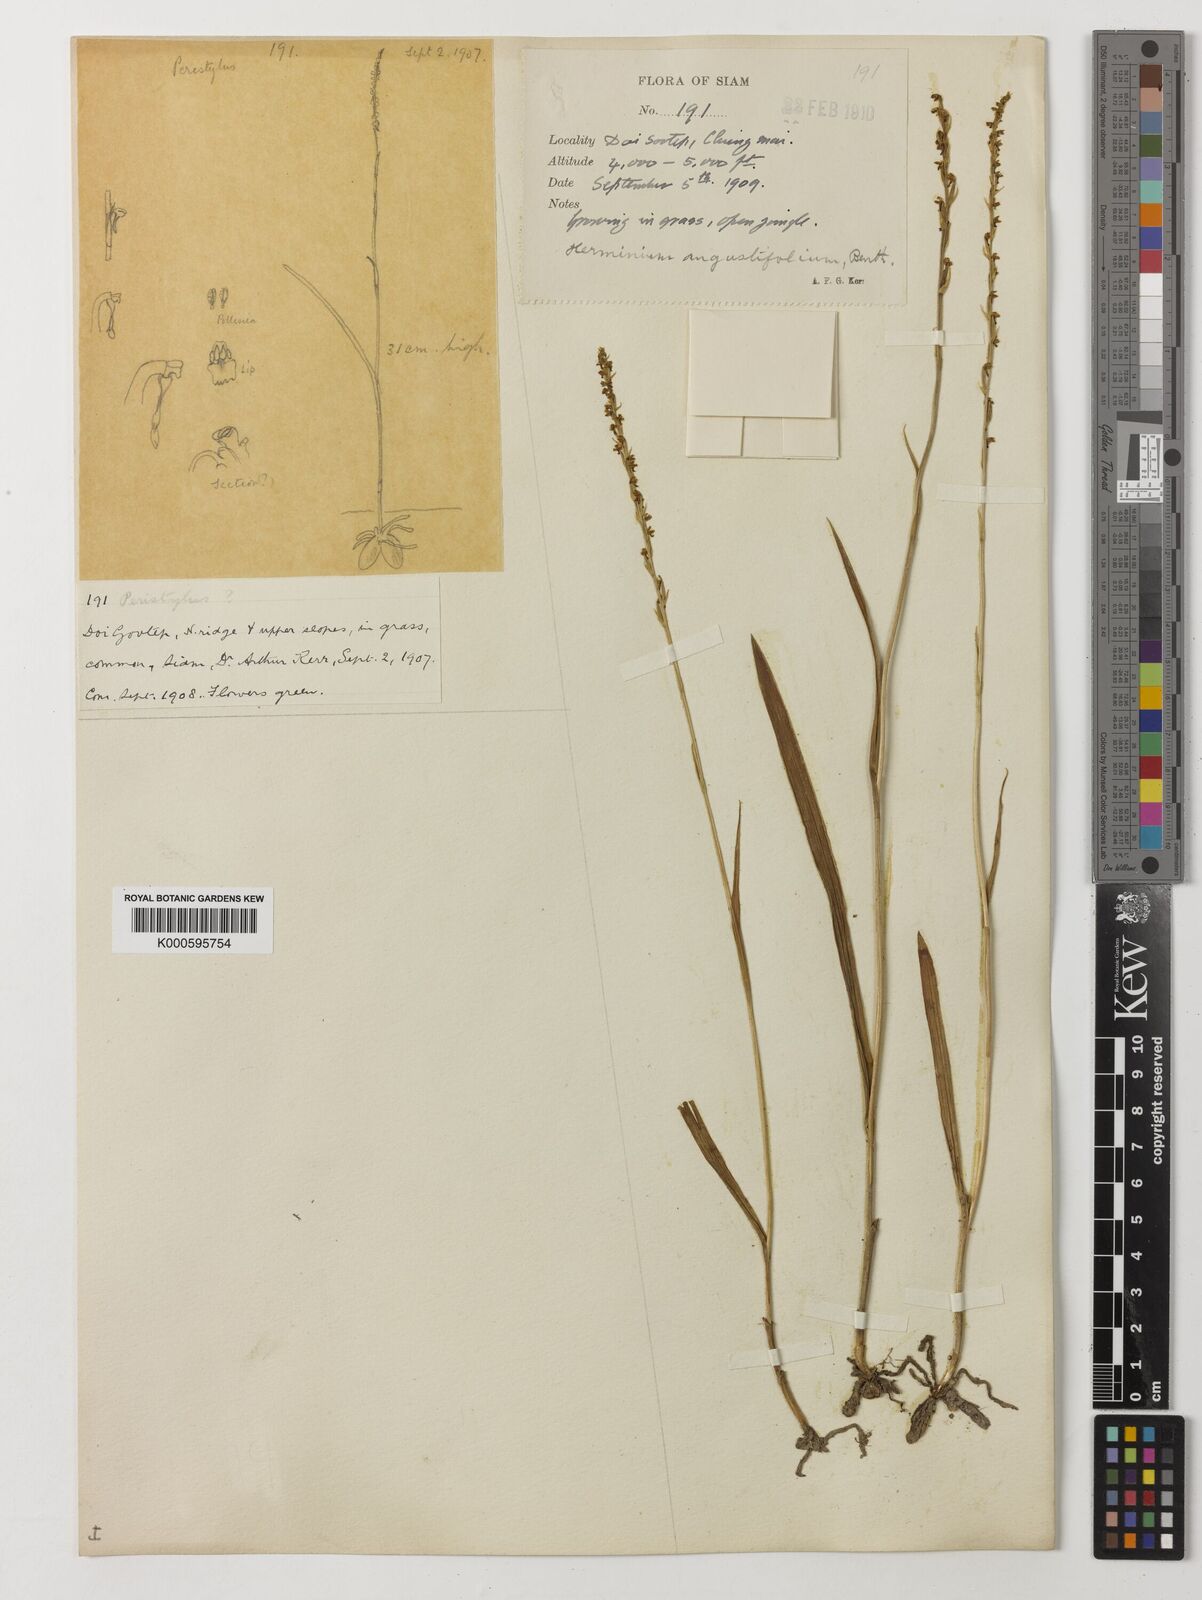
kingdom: Plantae
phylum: Tracheophyta
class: Liliopsida
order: Asparagales
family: Orchidaceae
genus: Herminium
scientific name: Herminium
